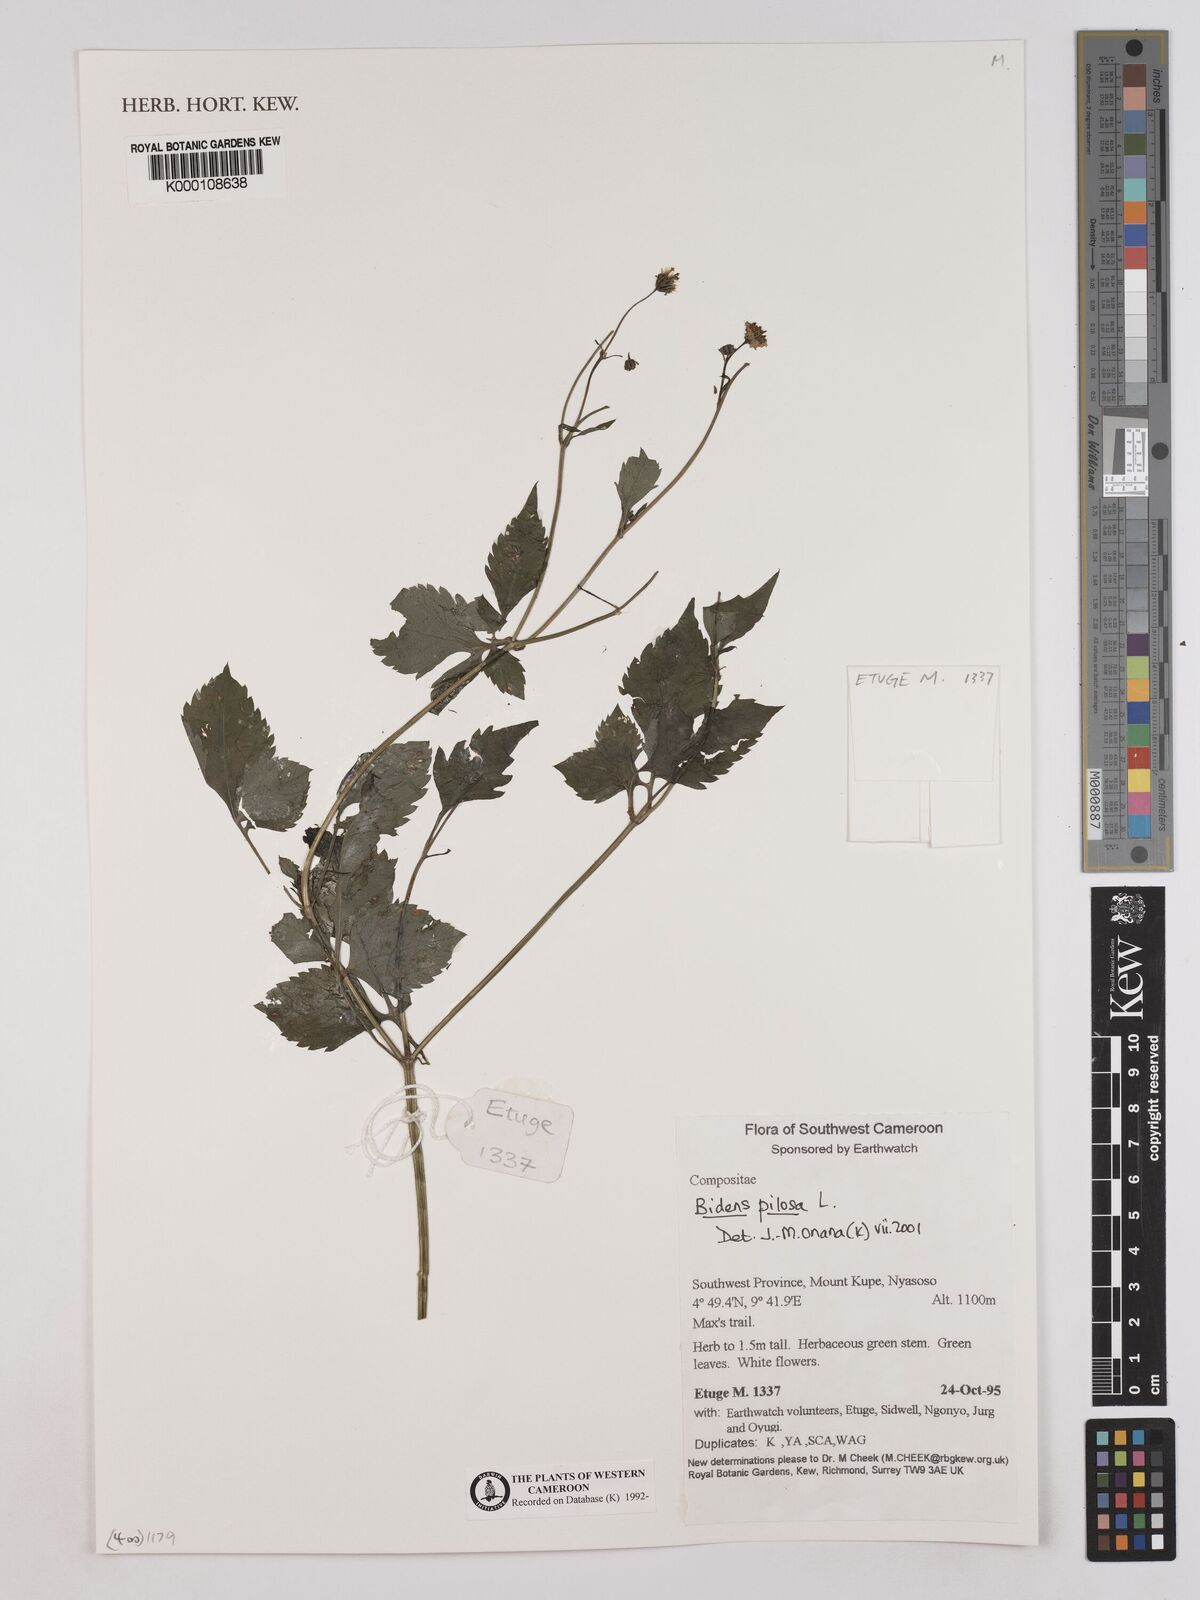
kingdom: Plantae
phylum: Tracheophyta
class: Magnoliopsida
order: Asterales
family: Asteraceae
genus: Bidens
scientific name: Bidens pilosa
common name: Black-jack
